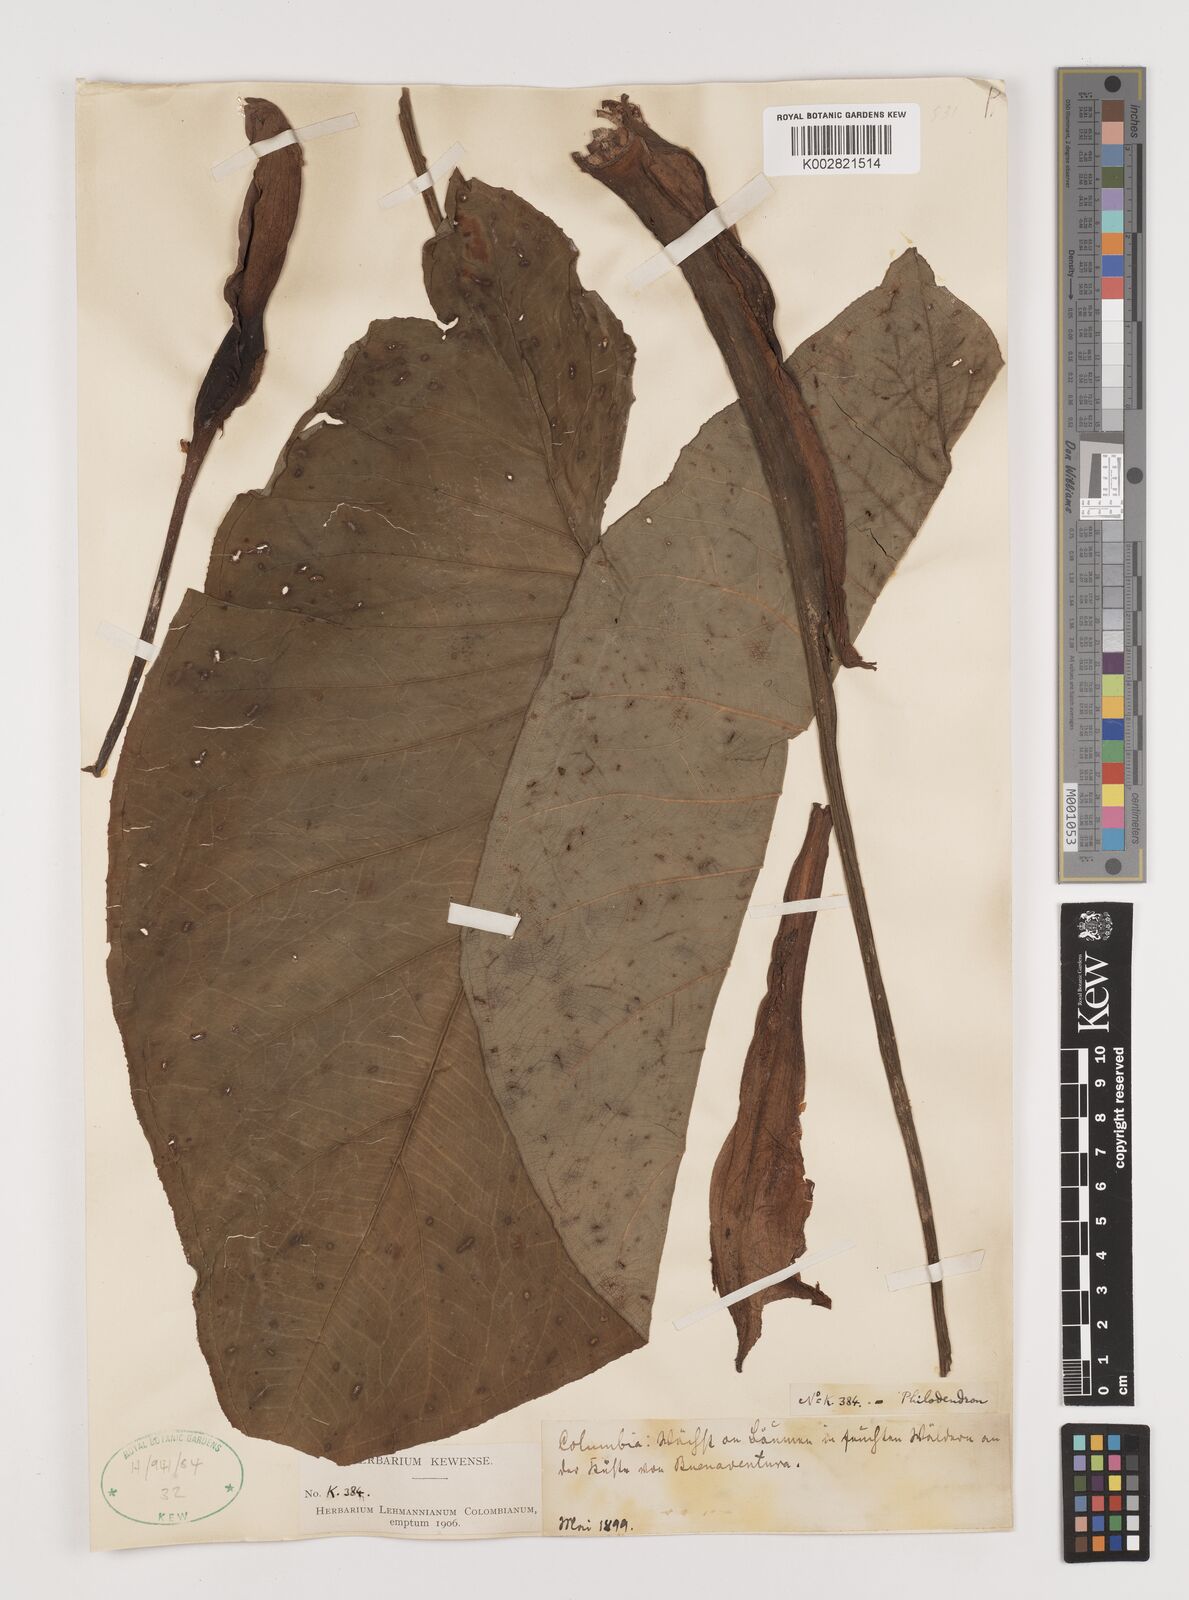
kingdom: Plantae
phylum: Tracheophyta
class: Liliopsida
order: Alismatales
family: Araceae
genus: Xanthosoma
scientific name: Xanthosoma
